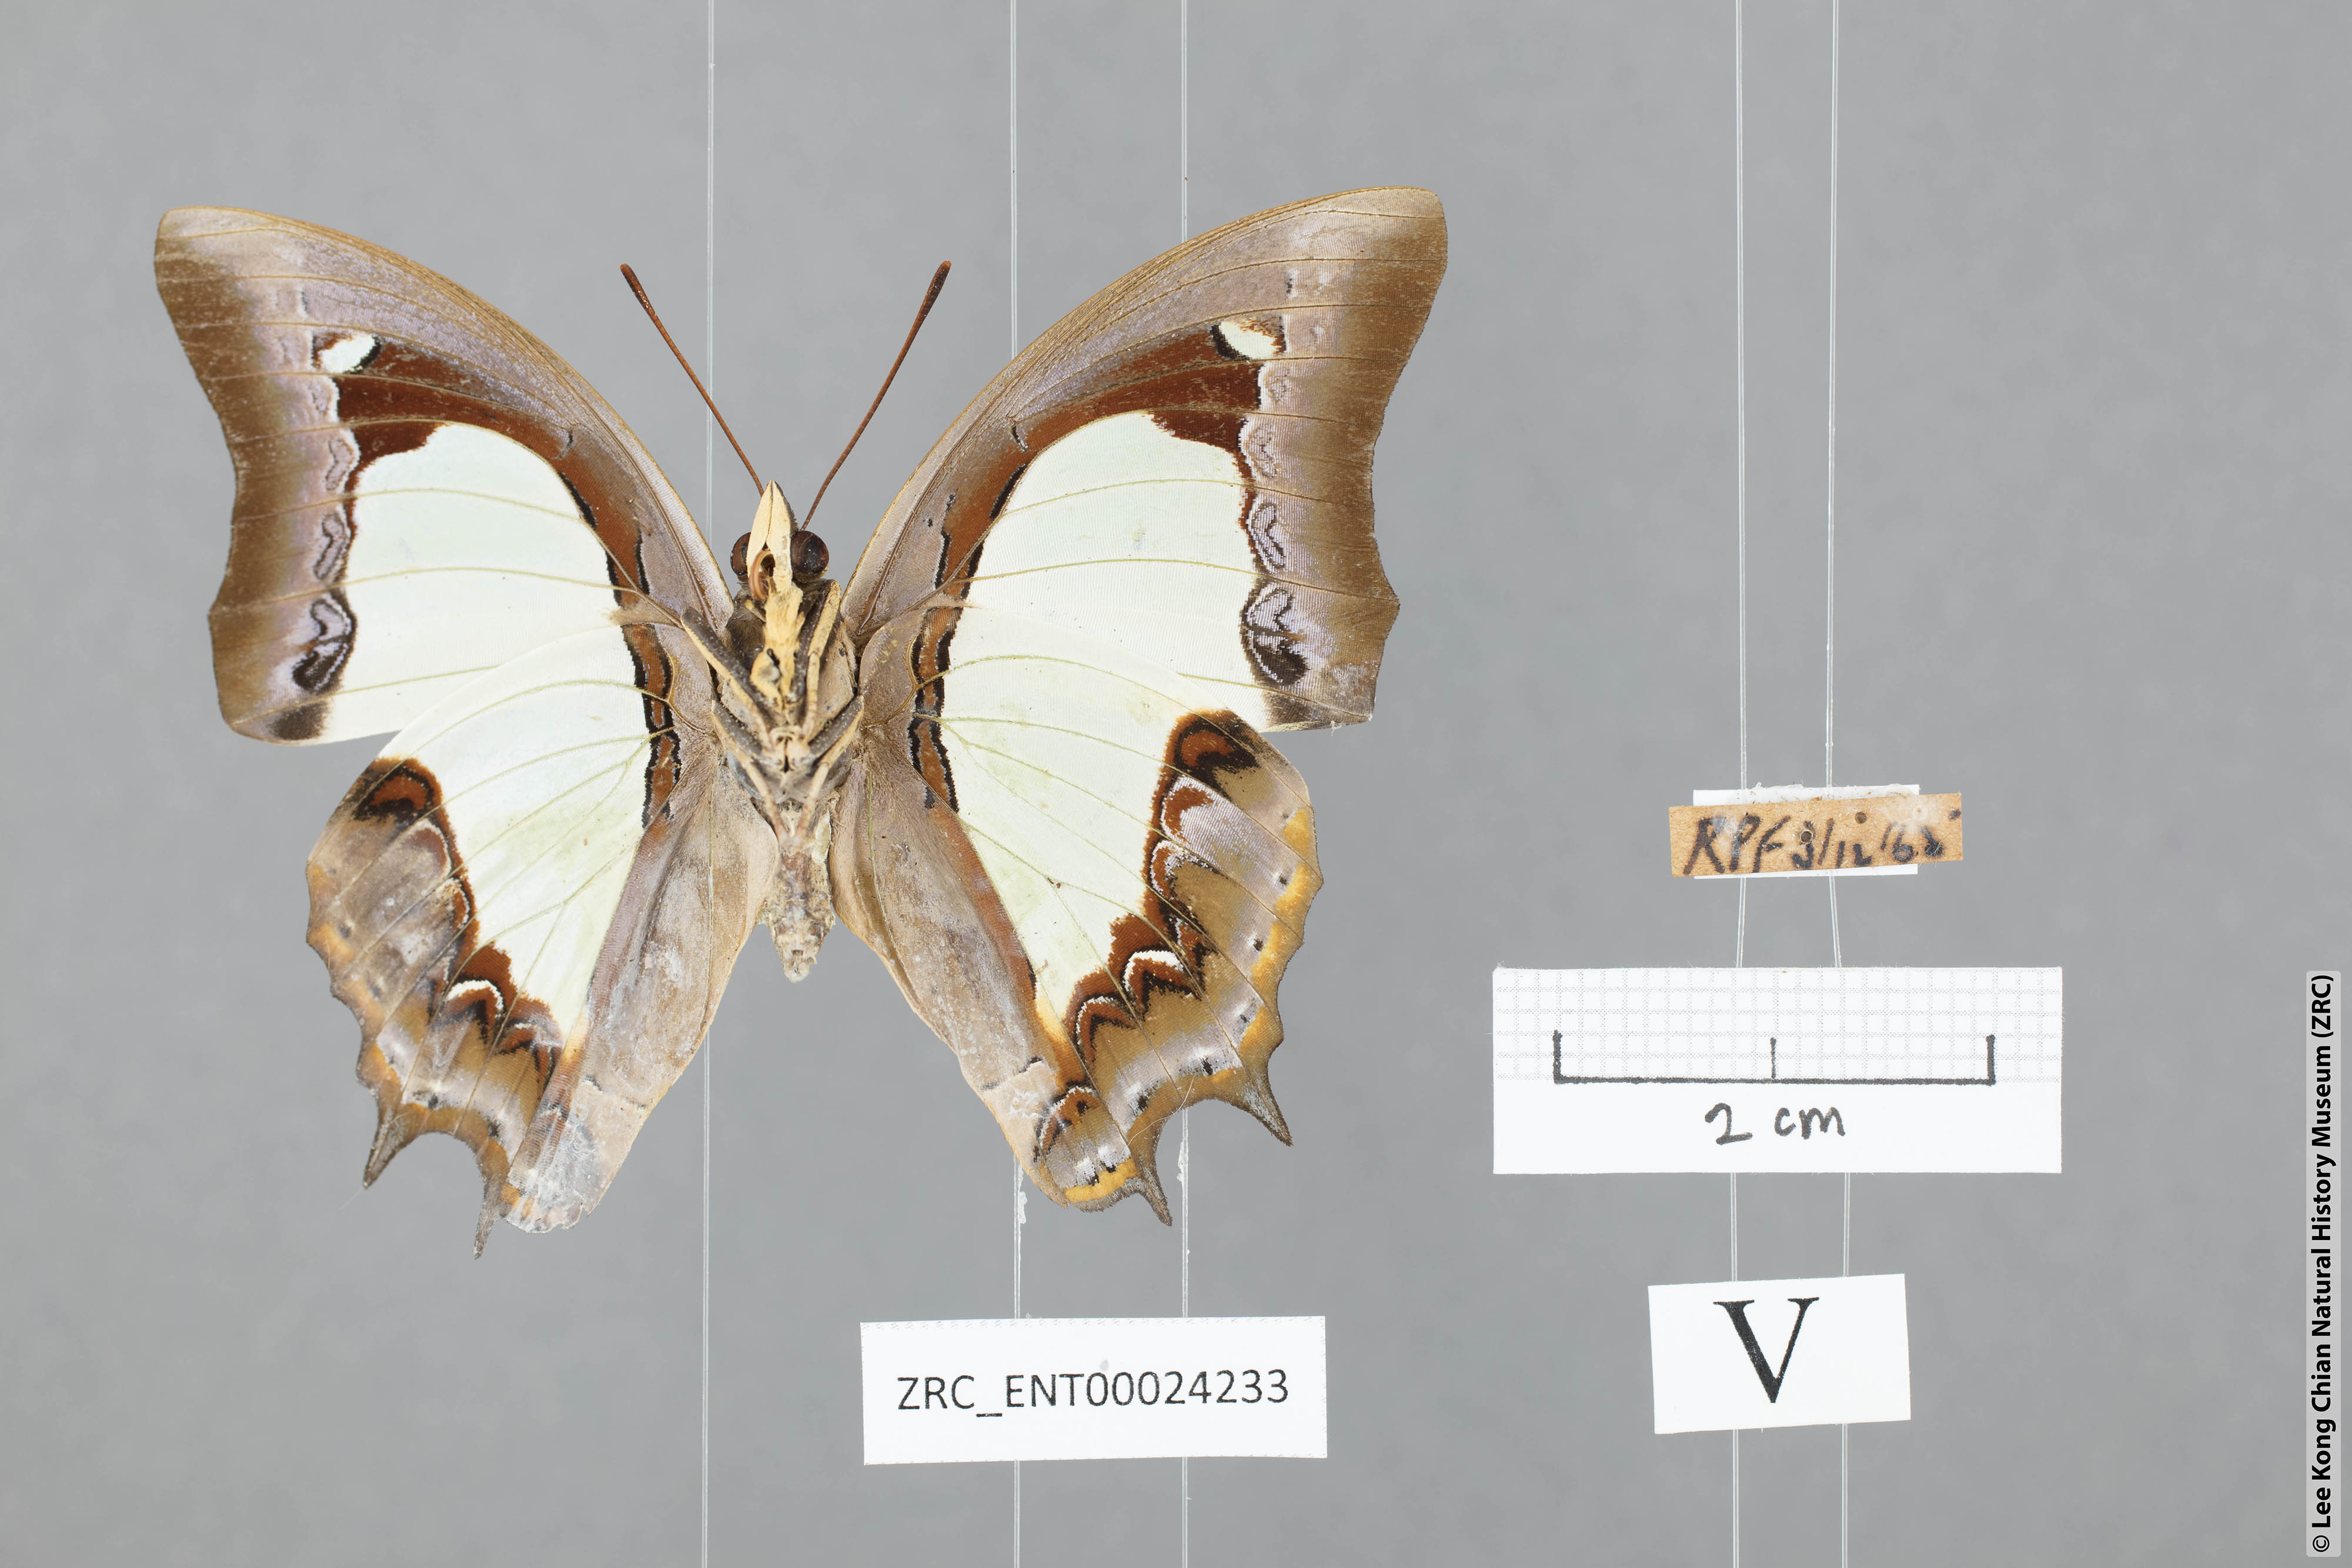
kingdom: Animalia
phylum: Arthropoda
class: Insecta
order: Lepidoptera
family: Nymphalidae
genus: Polyura
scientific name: Polyura moori
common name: Malayan nawab
